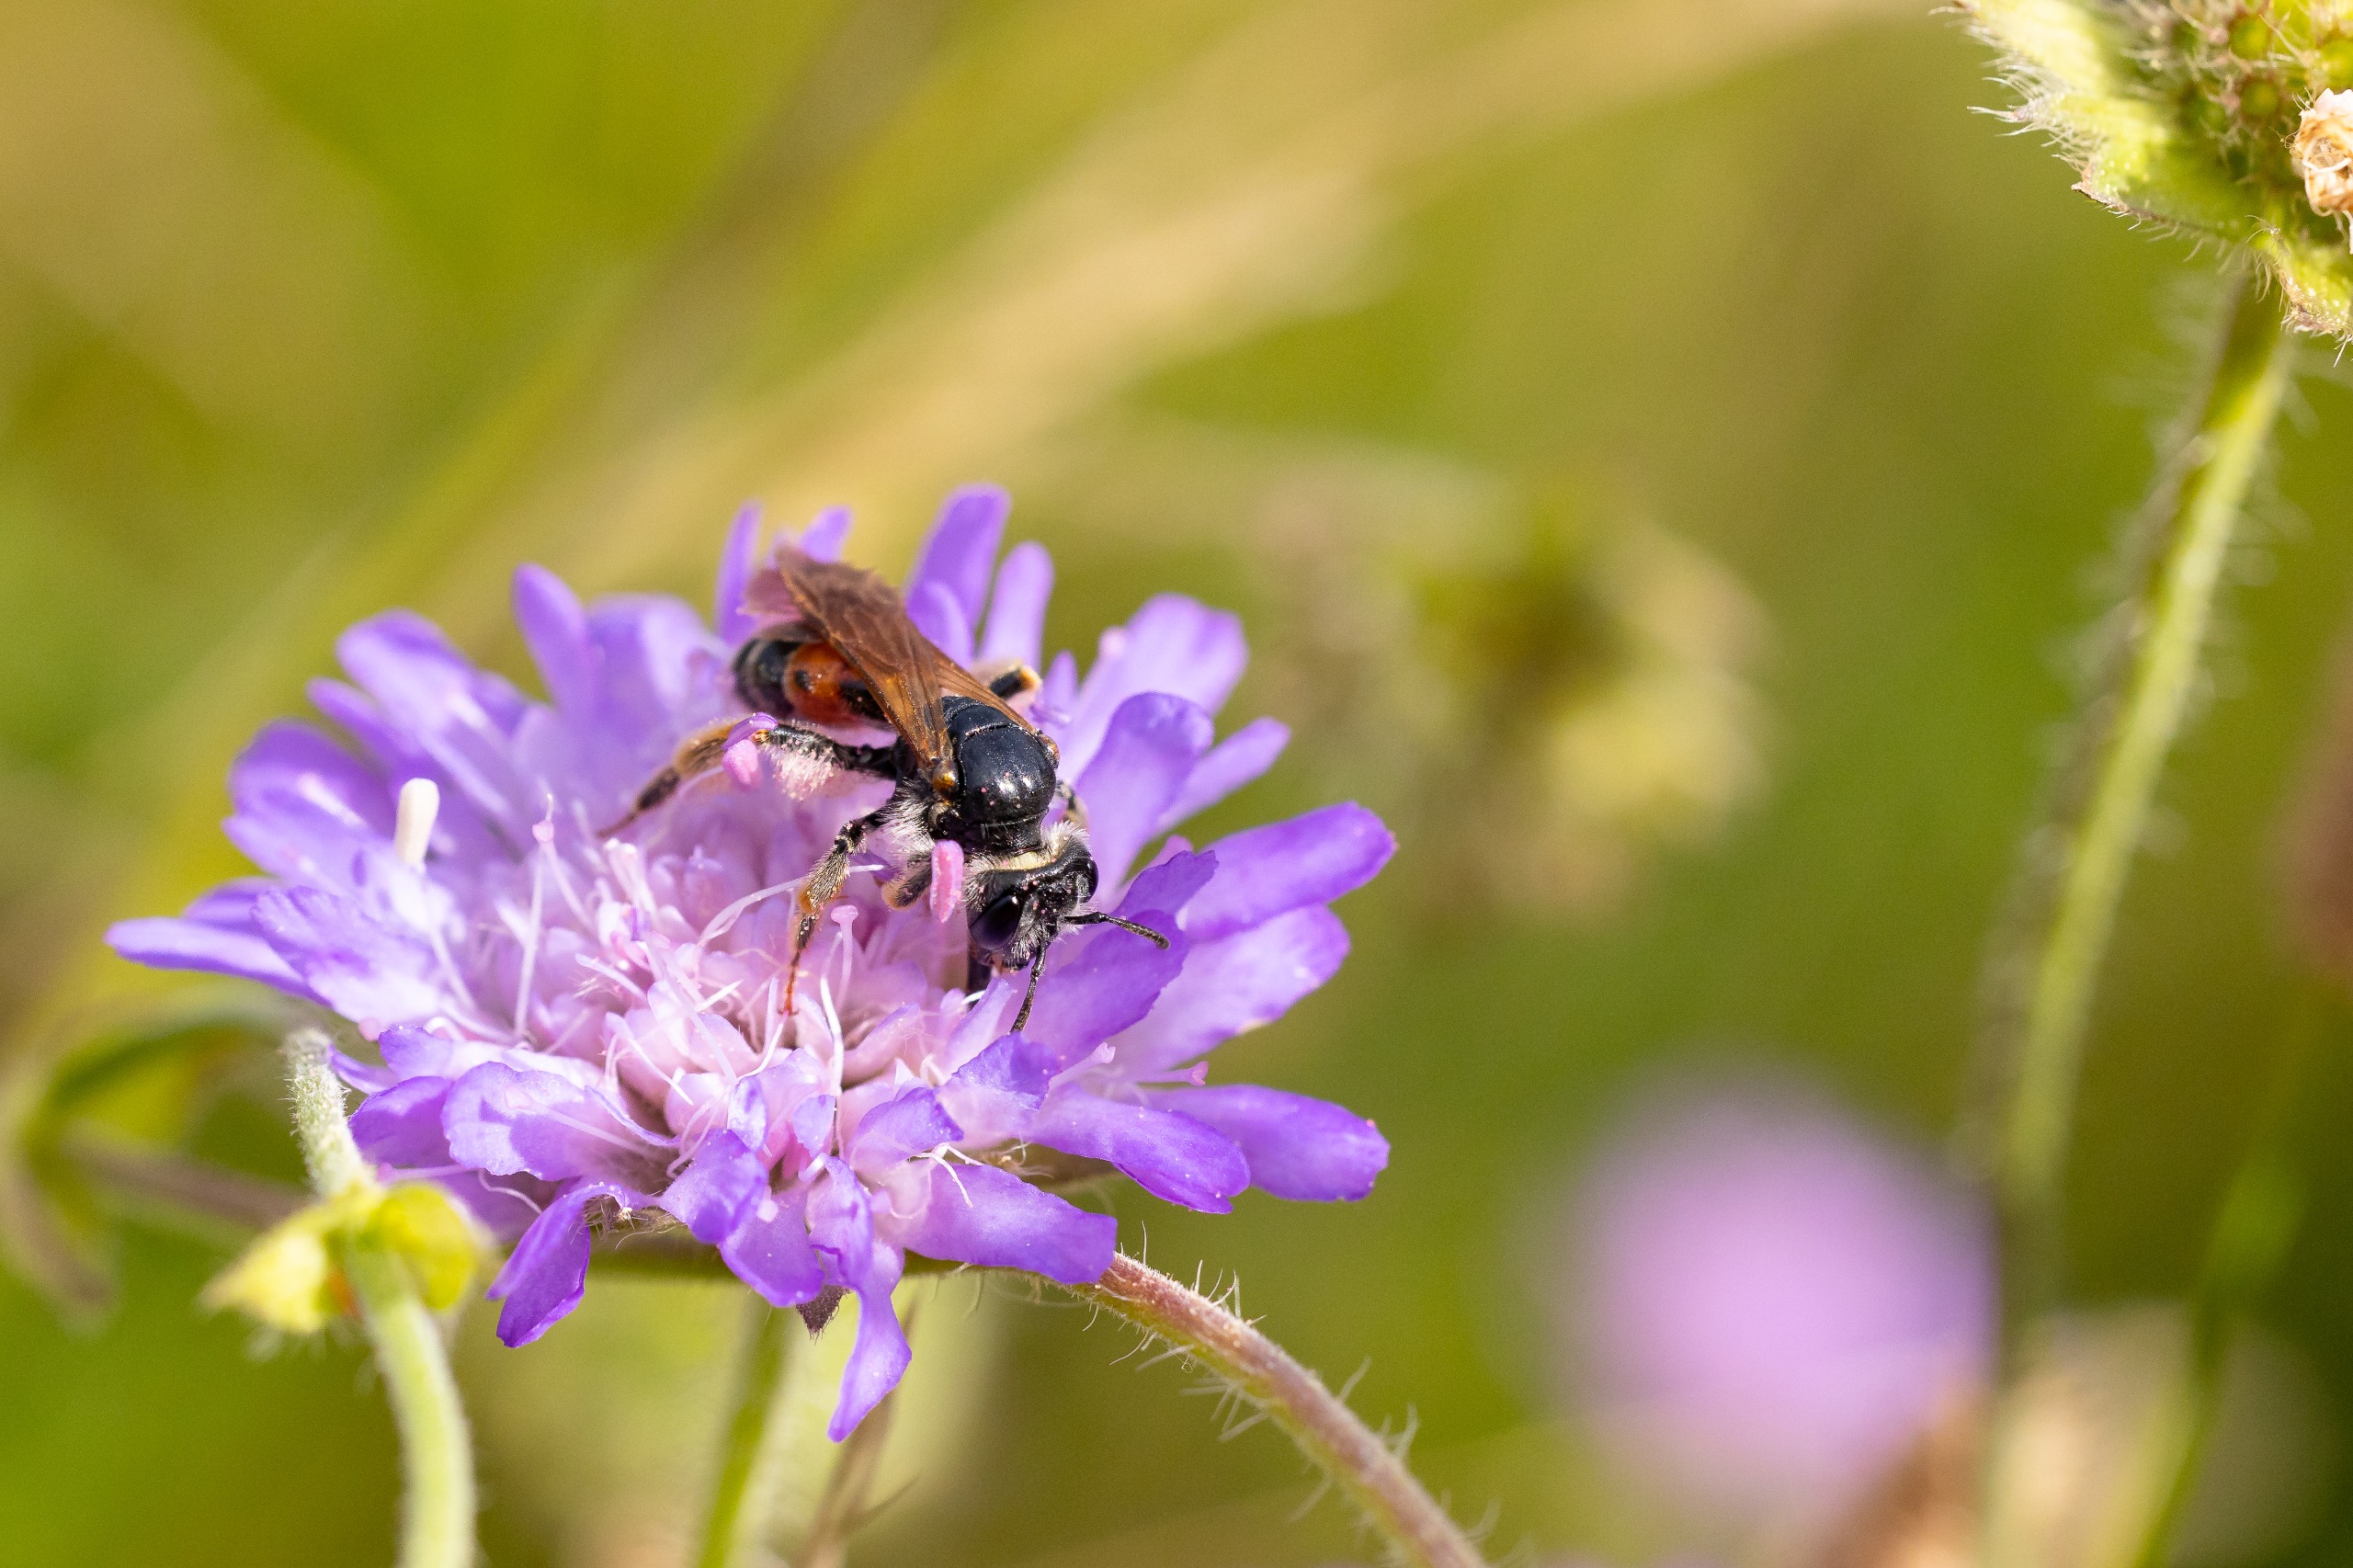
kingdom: Animalia
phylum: Arthropoda
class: Insecta
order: Hymenoptera
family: Andrenidae
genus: Andrena
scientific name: Andrena hattorfiana
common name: Blåhatjordbi
